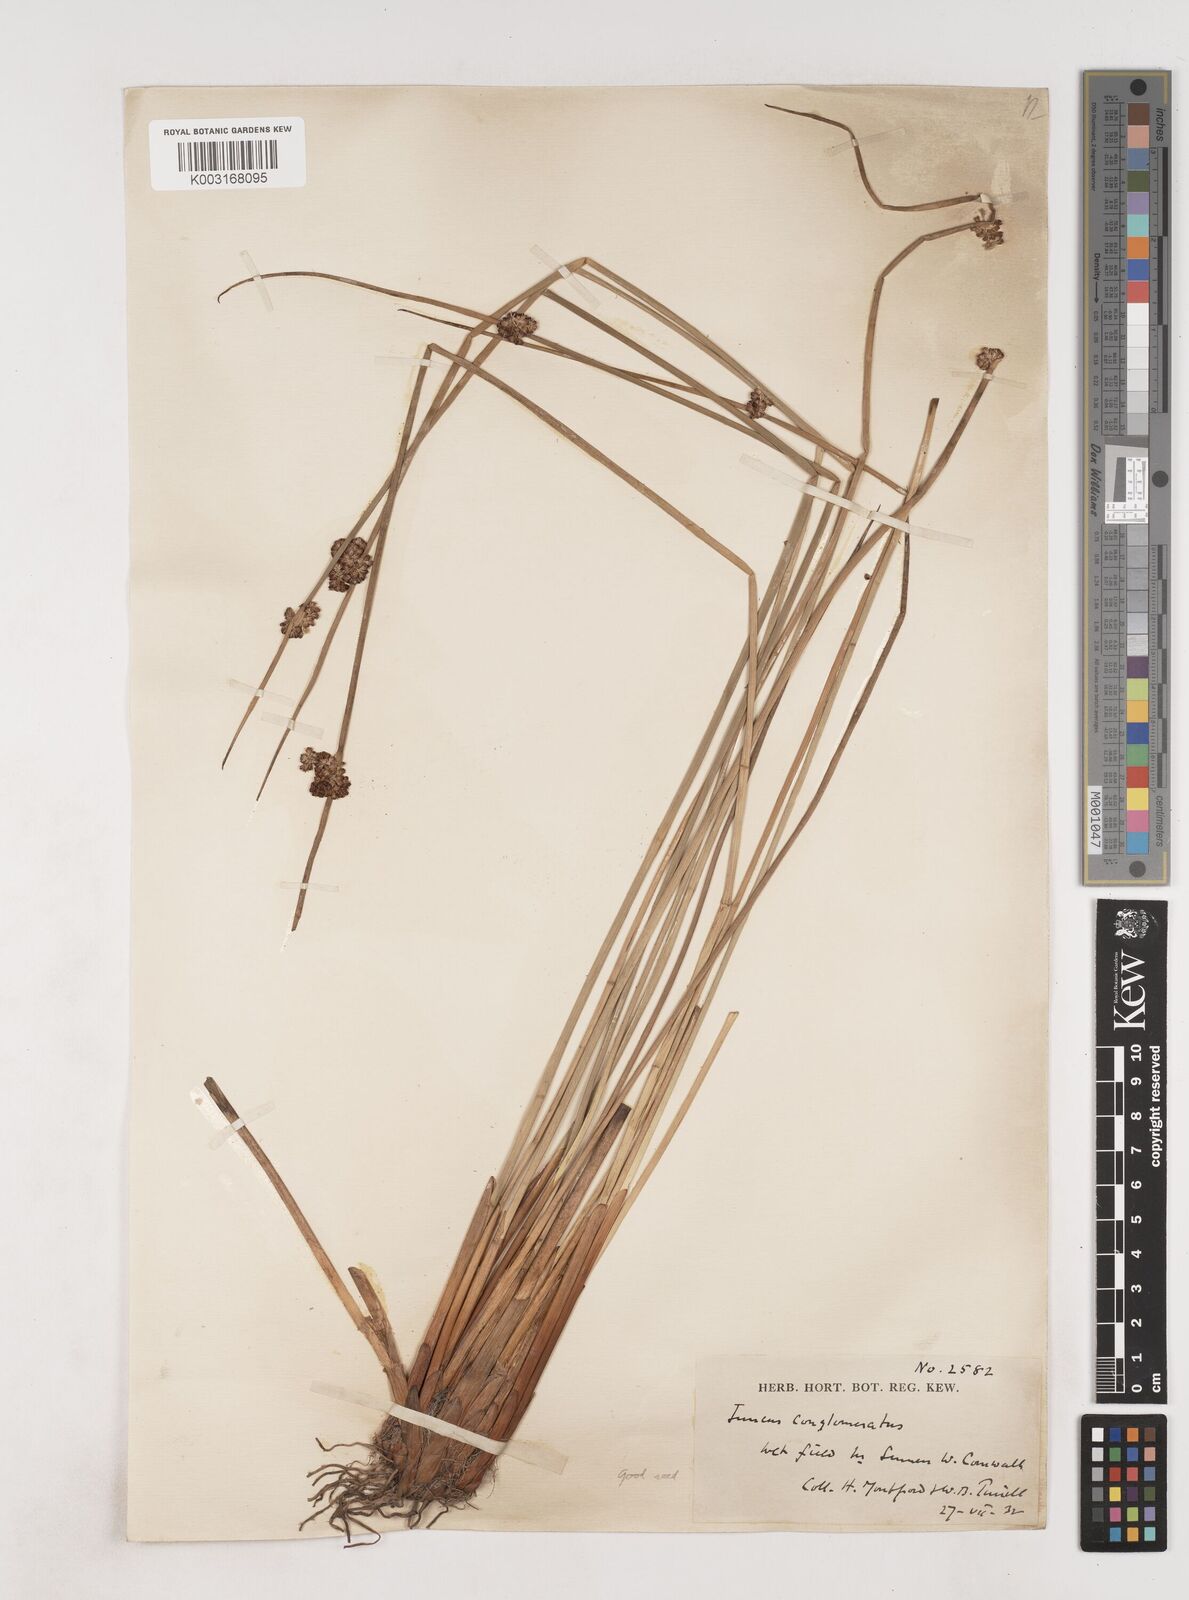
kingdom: Plantae
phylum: Tracheophyta
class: Liliopsida
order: Poales
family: Juncaceae
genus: Juncus
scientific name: Juncus conglomeratus
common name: Compact rush
